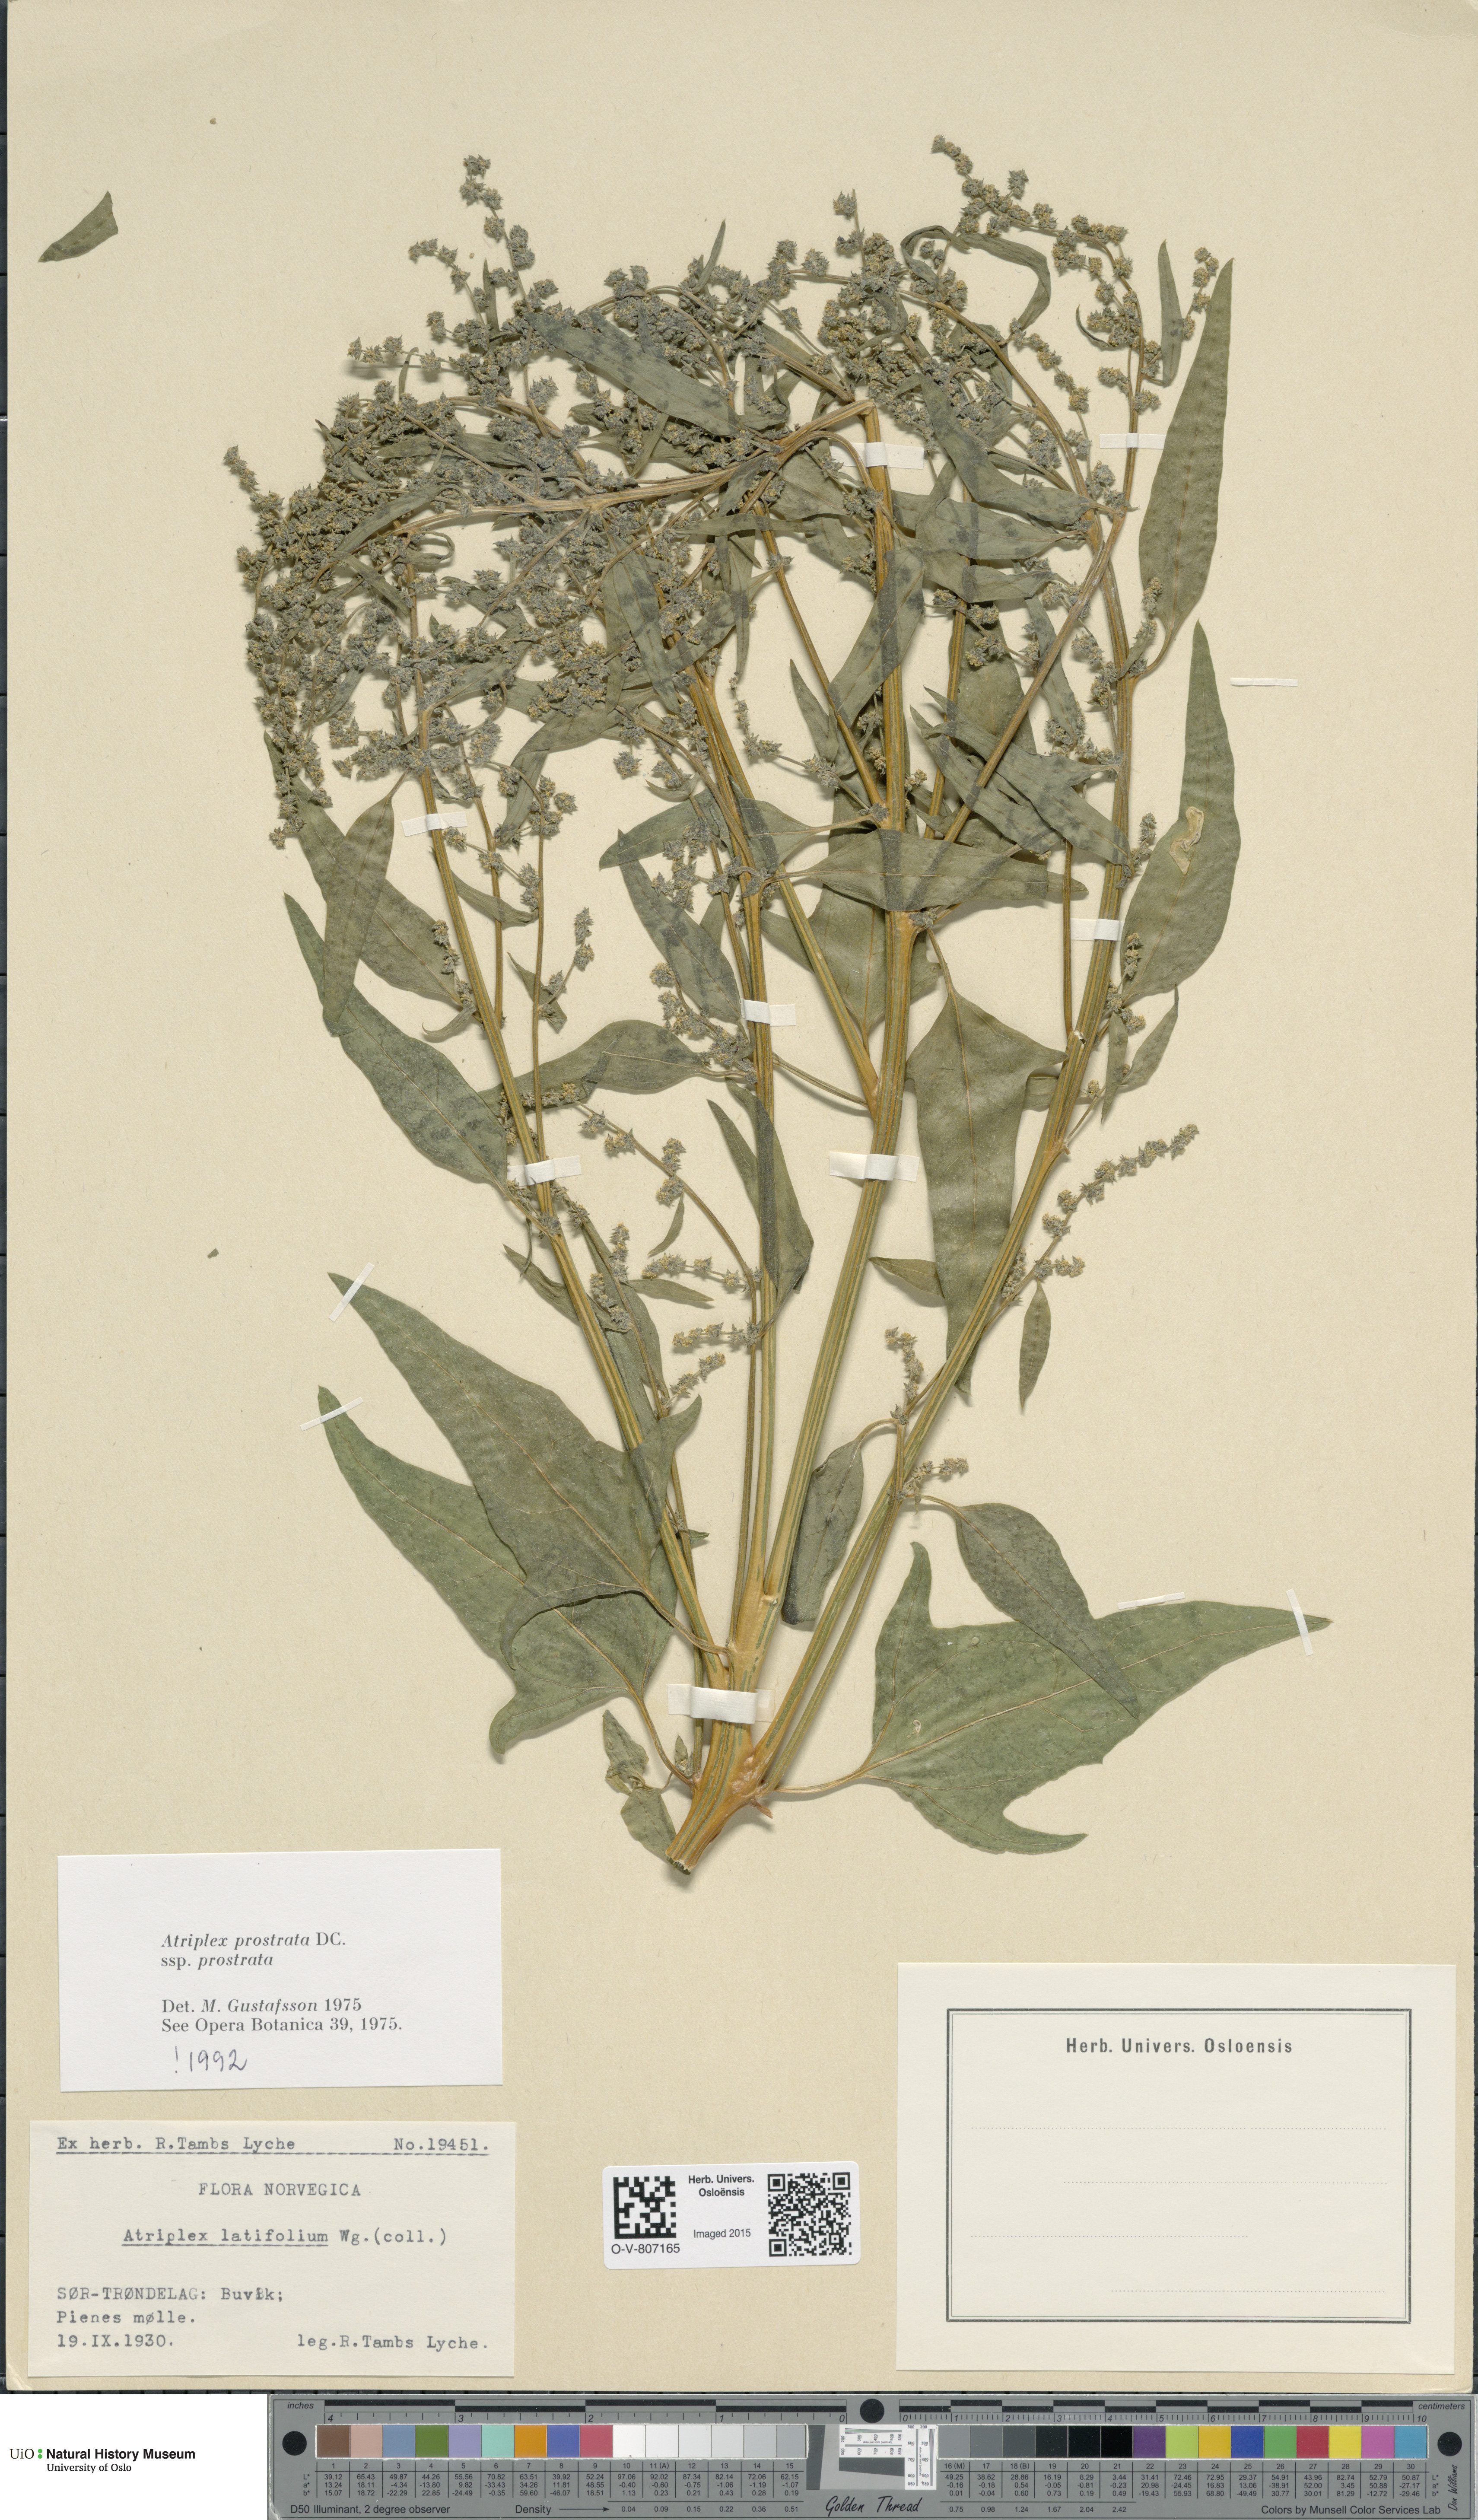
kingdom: Plantae
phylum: Tracheophyta
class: Magnoliopsida
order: Caryophyllales
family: Amaranthaceae
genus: Atriplex
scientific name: Atriplex prostrata
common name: Spear-leaved orache
